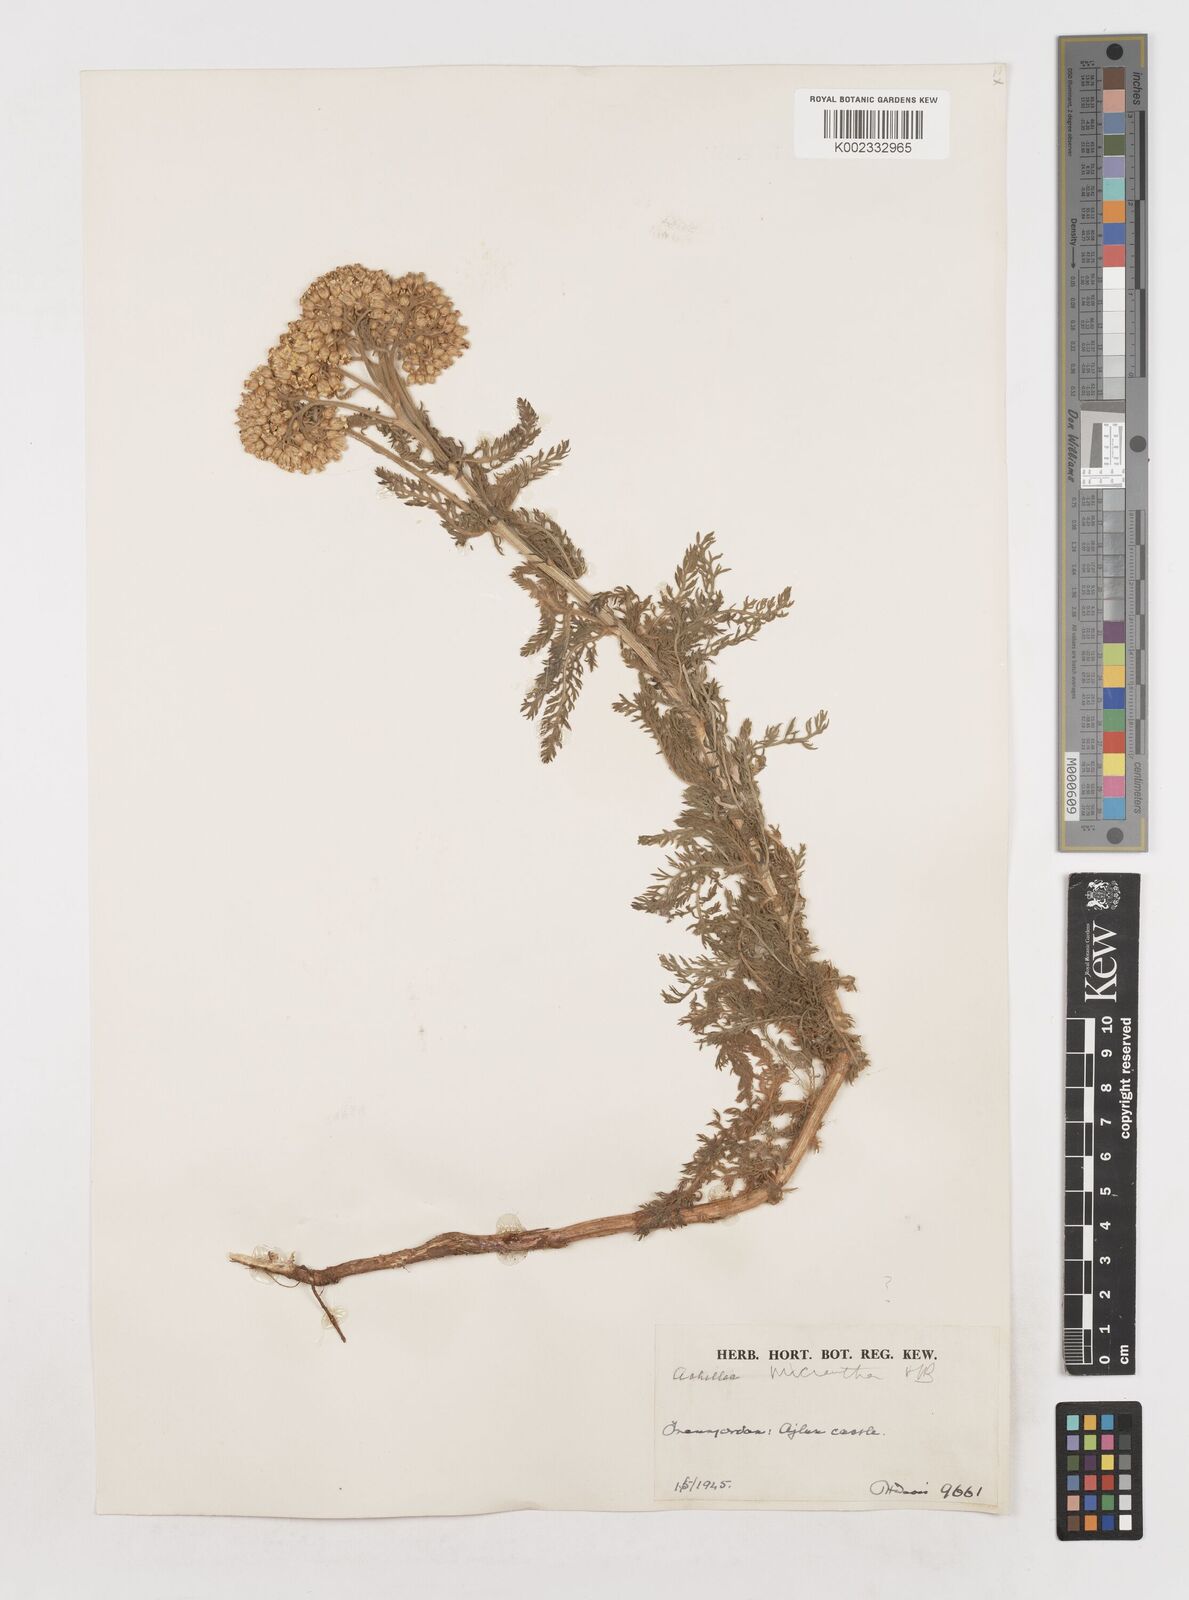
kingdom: Plantae
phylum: Tracheophyta
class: Magnoliopsida
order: Asterales
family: Asteraceae
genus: Achillea
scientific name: Achillea arabica
